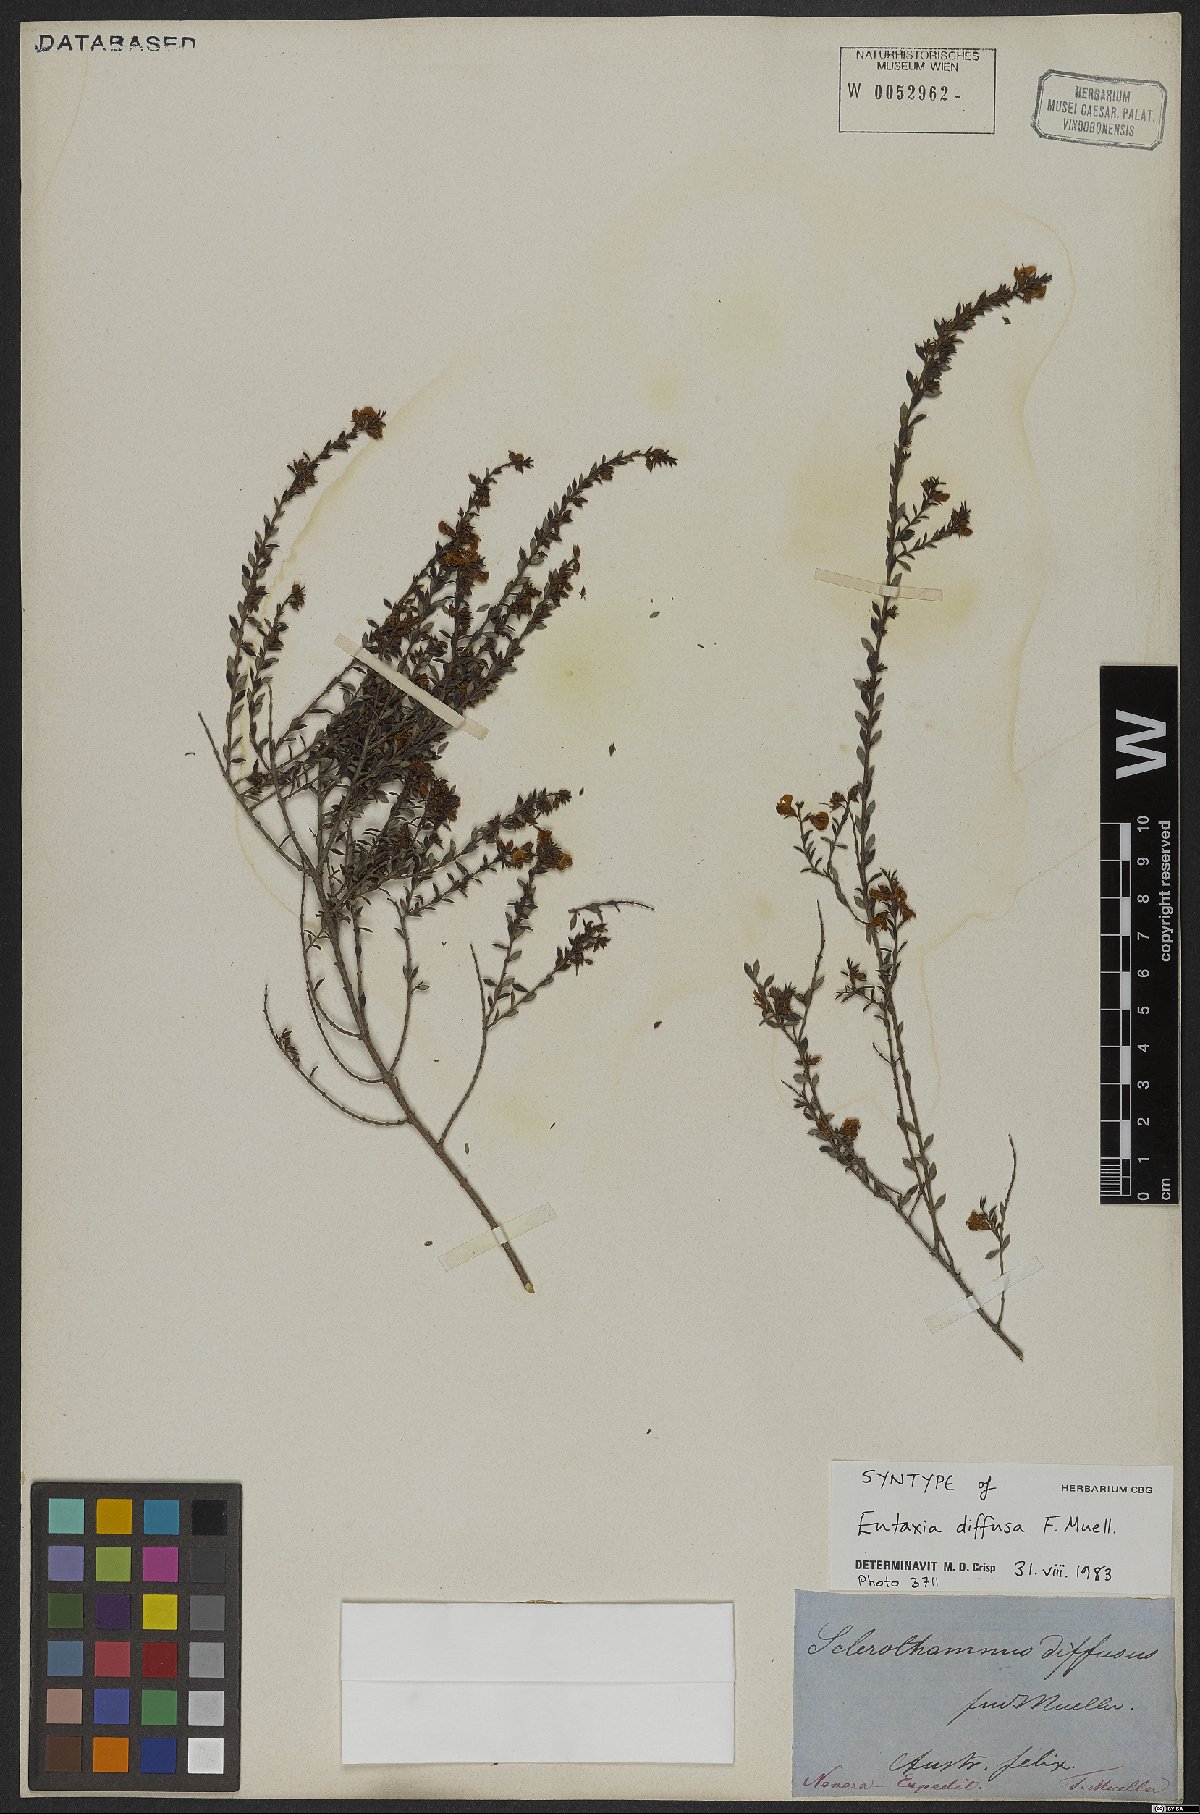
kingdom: Plantae
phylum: Tracheophyta
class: Magnoliopsida
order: Fabales
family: Fabaceae
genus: Eutaxia
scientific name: Eutaxia diffusa
